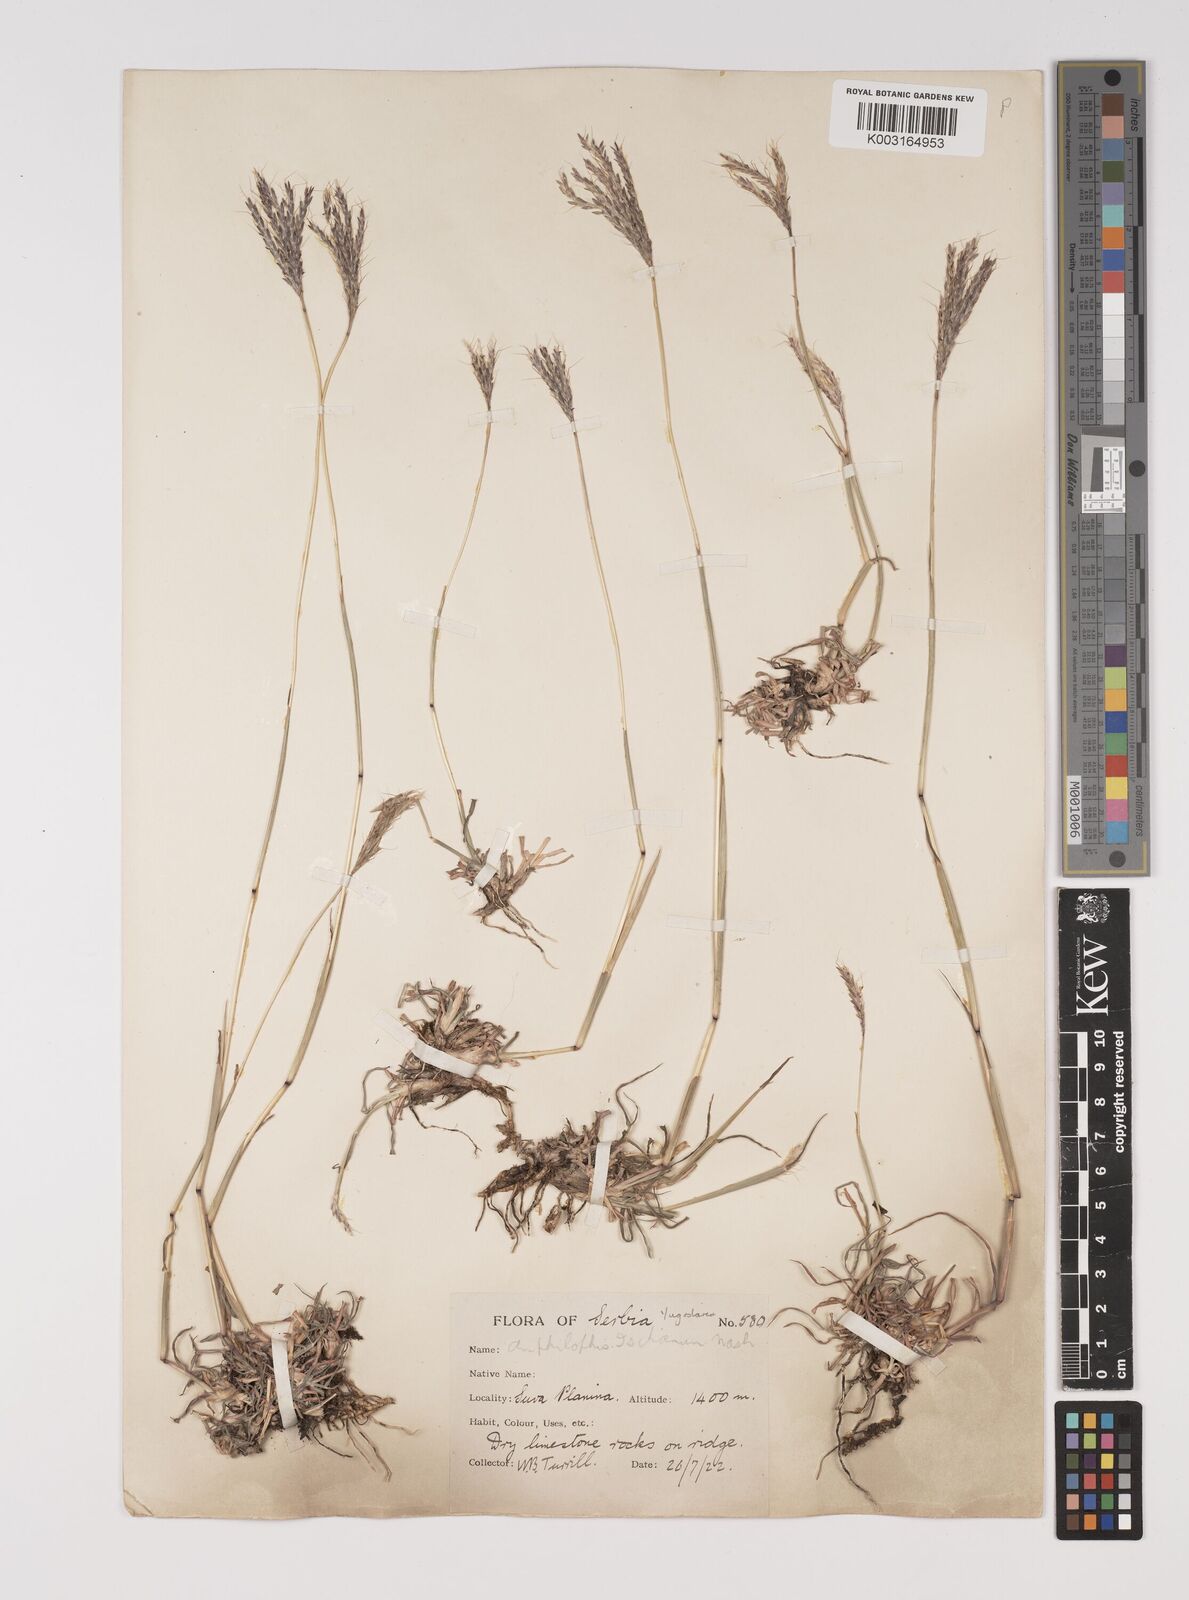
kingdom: Plantae
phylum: Tracheophyta
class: Liliopsida
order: Poales
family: Poaceae
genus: Bothriochloa
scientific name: Bothriochloa ischaemum
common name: Yellow bluestem
